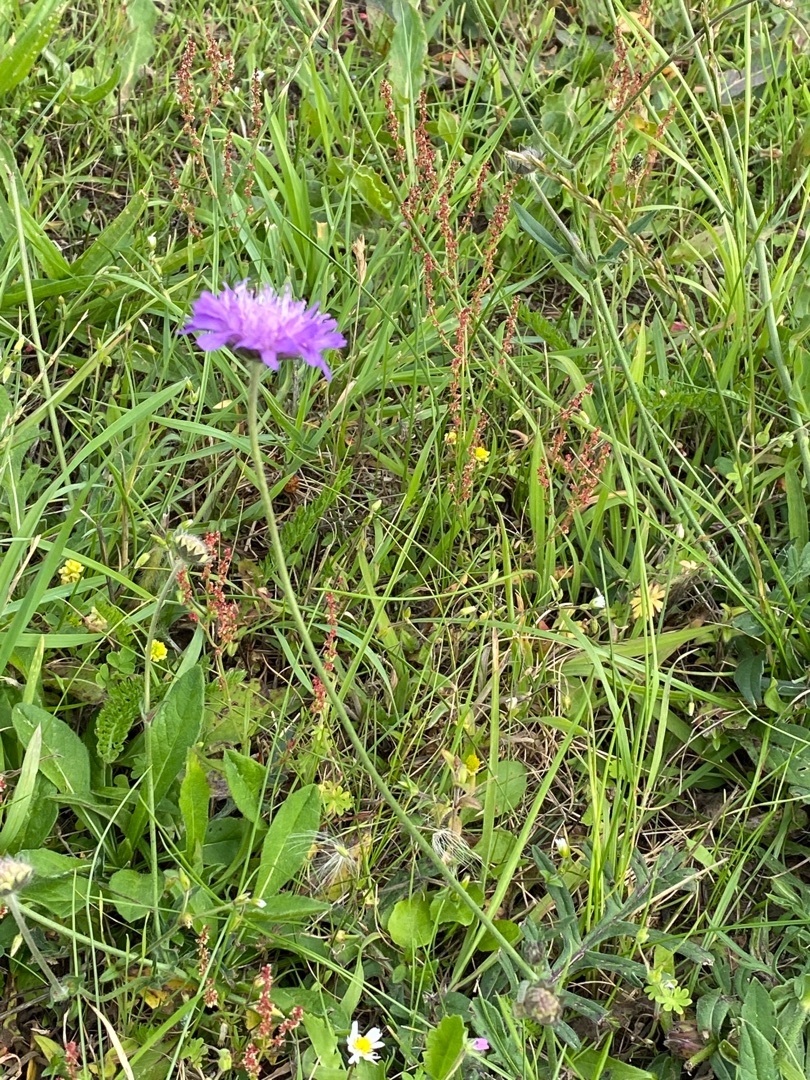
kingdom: Plantae
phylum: Tracheophyta
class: Magnoliopsida
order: Dipsacales
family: Caprifoliaceae
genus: Knautia
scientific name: Knautia arvensis
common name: Blåhat
